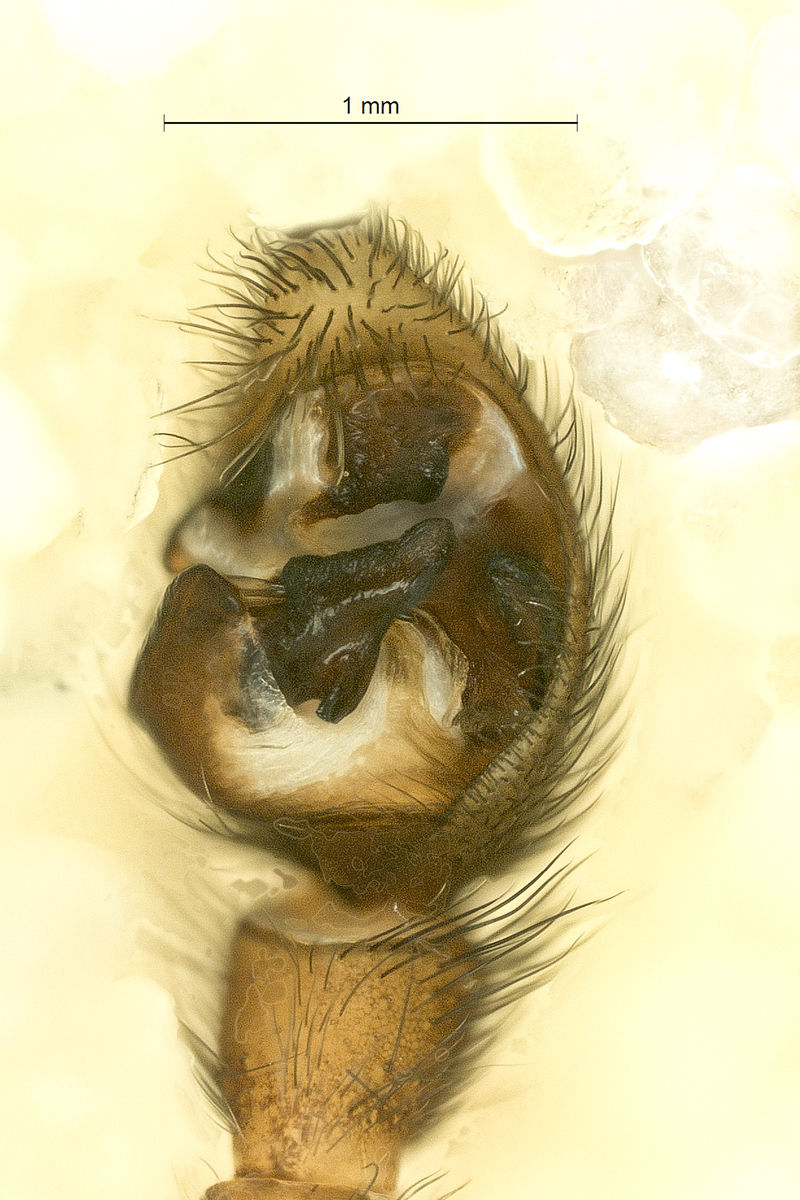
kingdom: Animalia
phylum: Arthropoda
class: Arachnida
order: Araneae
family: Lycosidae
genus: Pardosa
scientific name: Pardosa palustris
